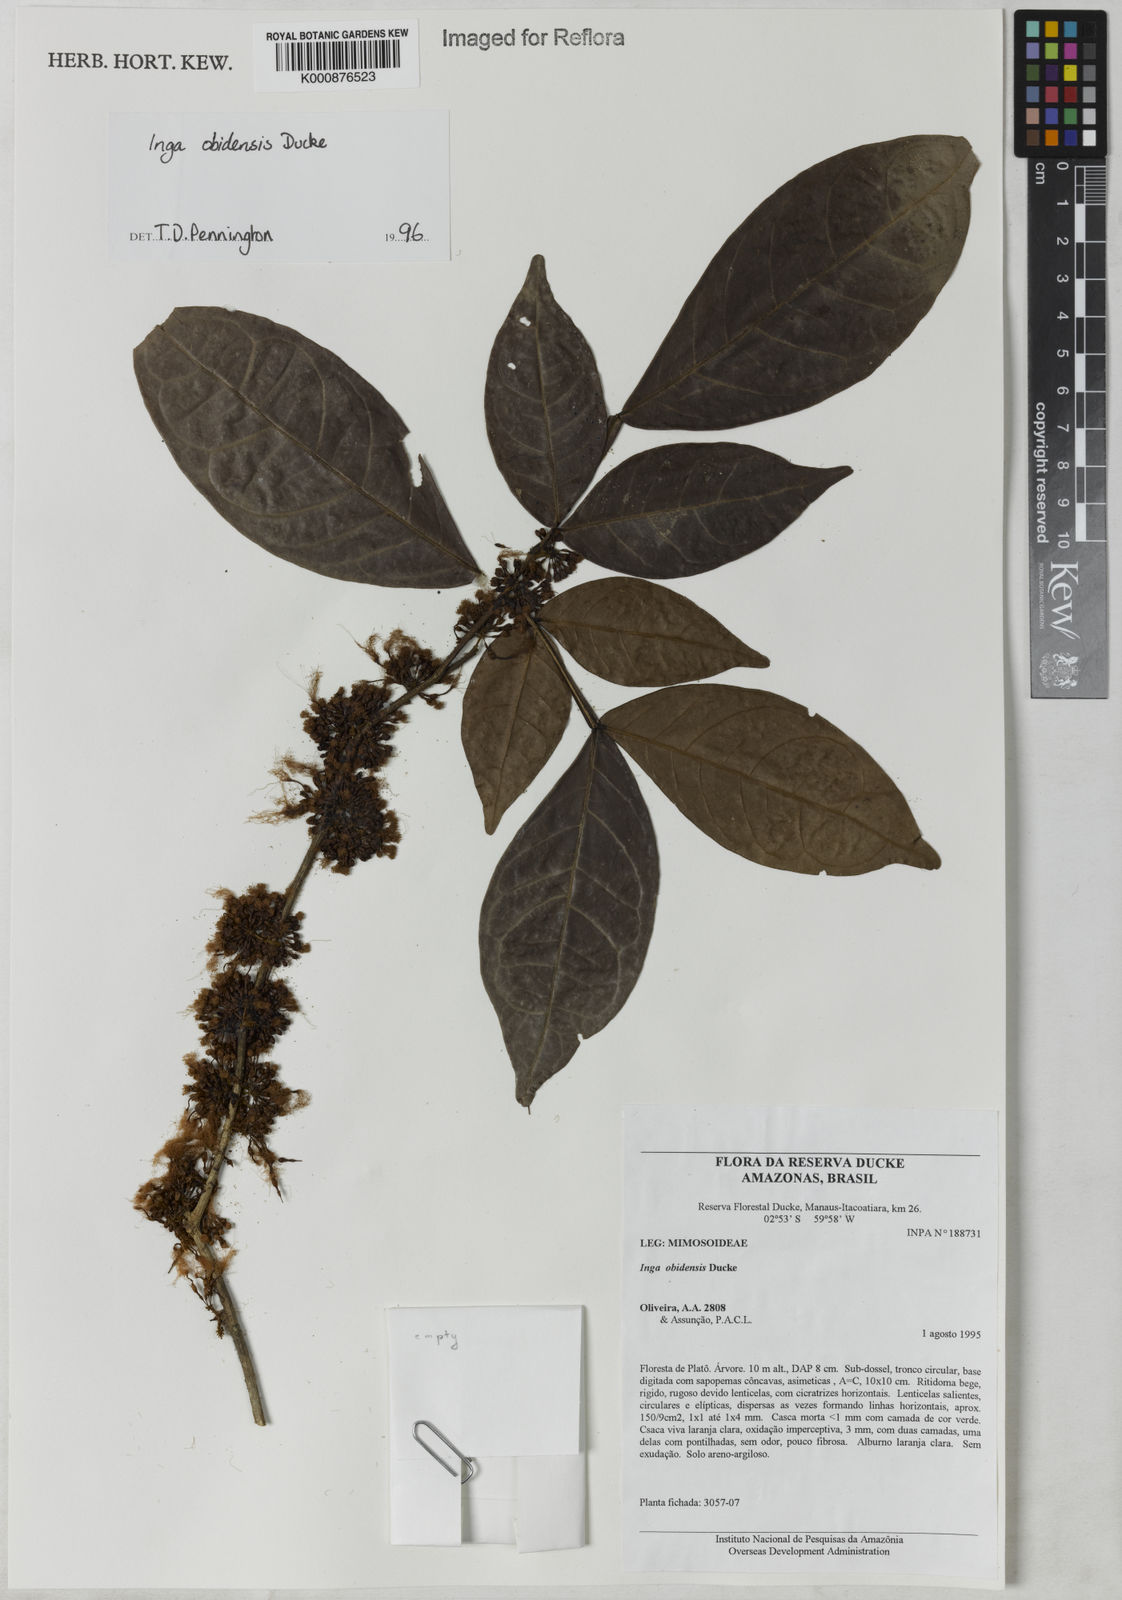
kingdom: Plantae
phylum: Tracheophyta
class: Magnoliopsida
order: Fabales
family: Fabaceae
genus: Inga
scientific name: Inga obidensis
